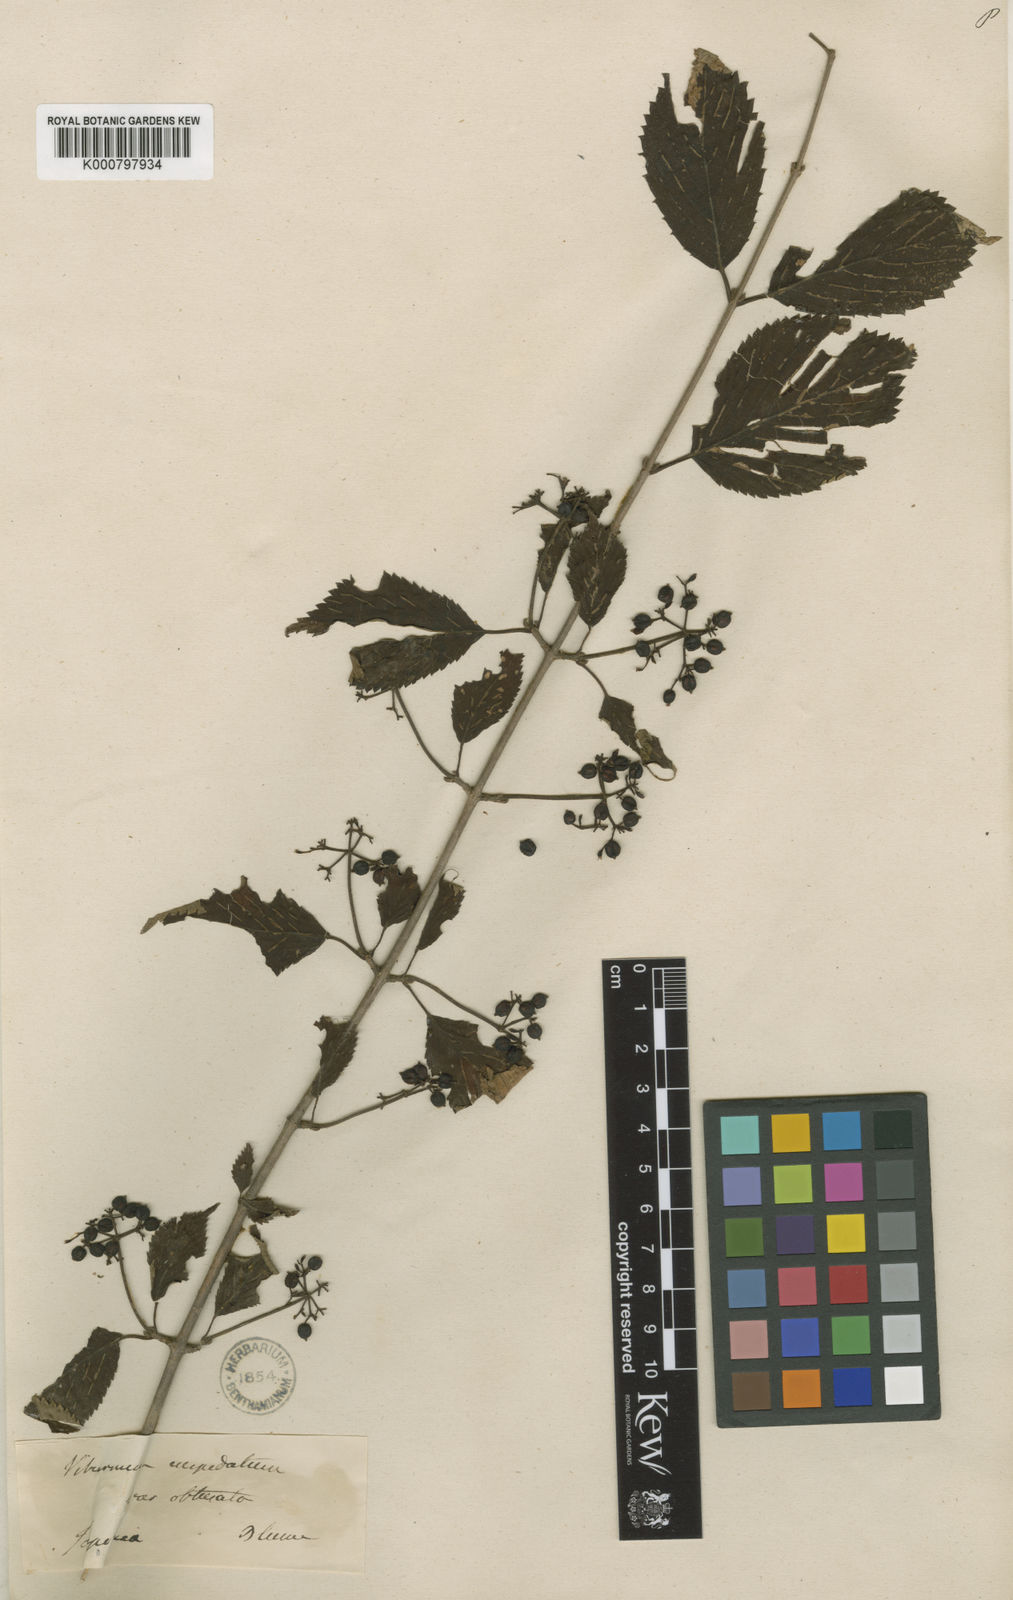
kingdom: Plantae
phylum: Tracheophyta
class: Magnoliopsida
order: Dipsacales
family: Viburnaceae
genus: Viburnum
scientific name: Viburnum
